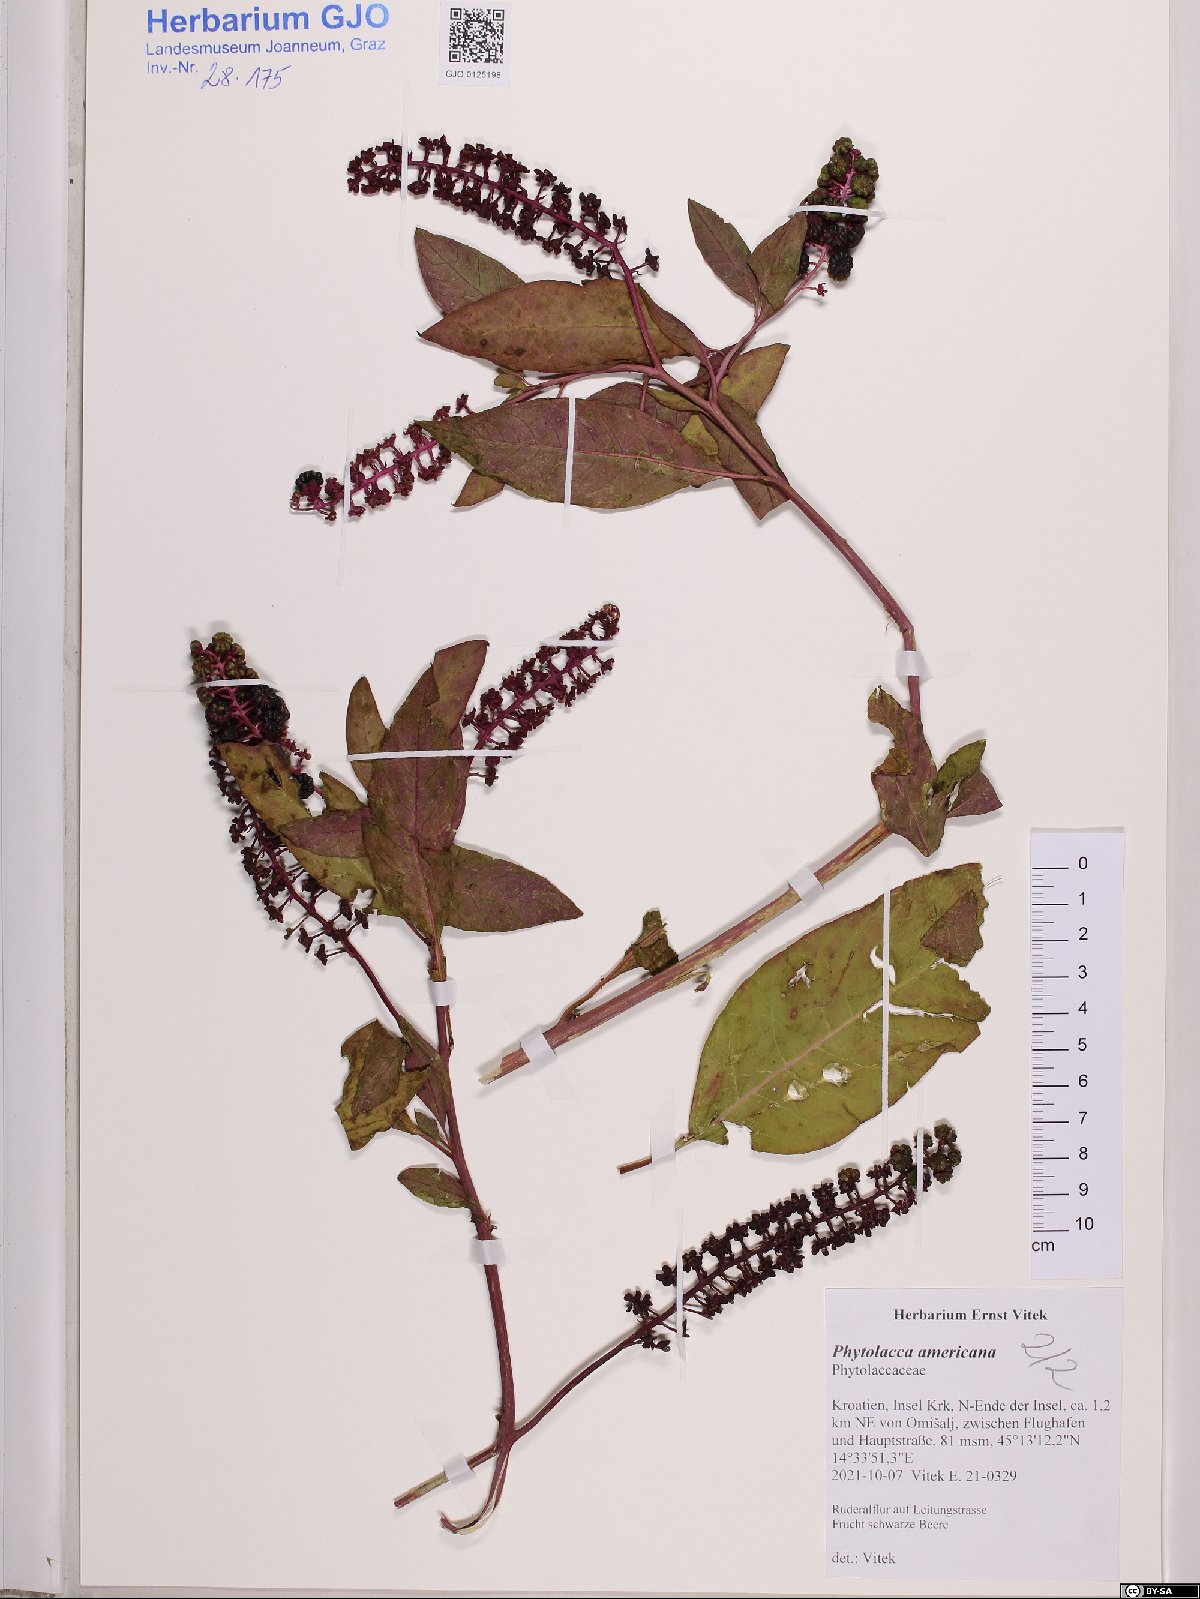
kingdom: Plantae
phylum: Tracheophyta
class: Magnoliopsida
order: Caryophyllales
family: Phytolaccaceae
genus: Phytolacca
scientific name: Phytolacca americana
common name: American pokeweed
